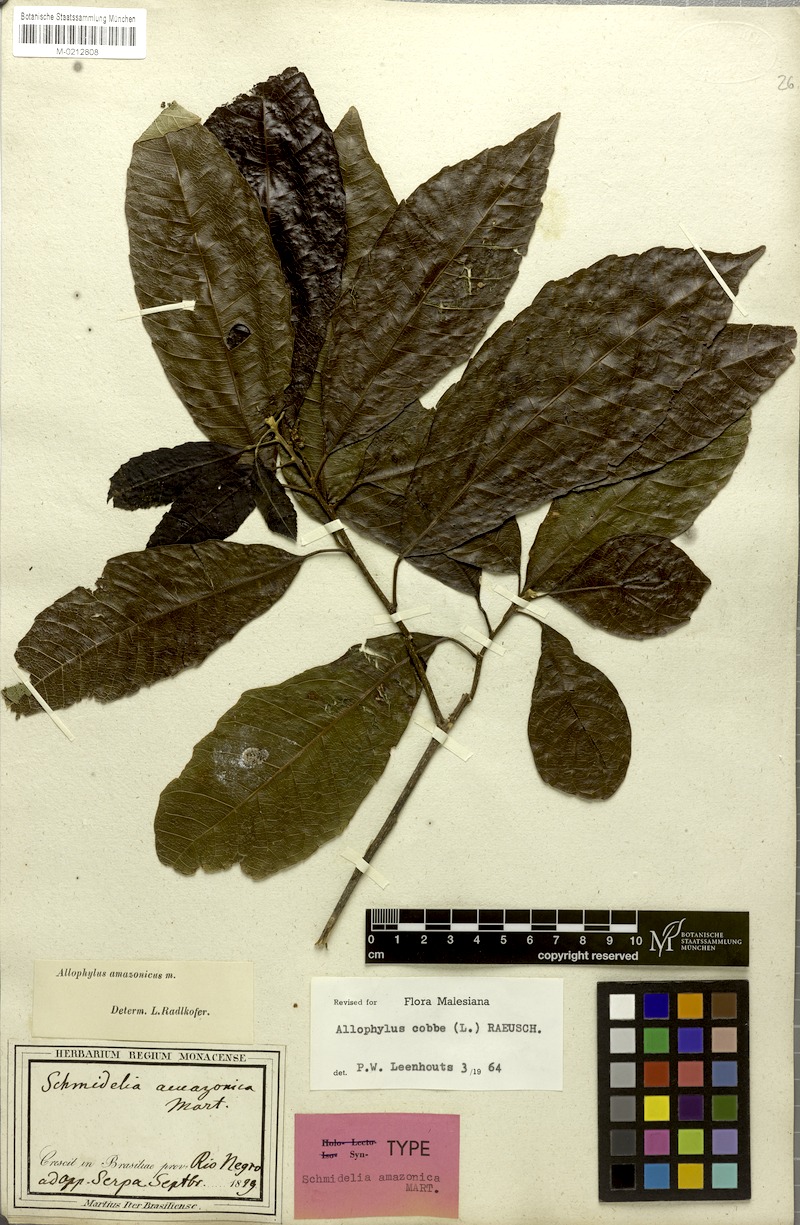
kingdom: Plantae
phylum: Tracheophyta
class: Magnoliopsida
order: Sapindales
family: Sapindaceae
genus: Allophylus
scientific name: Allophylus amazonicus
